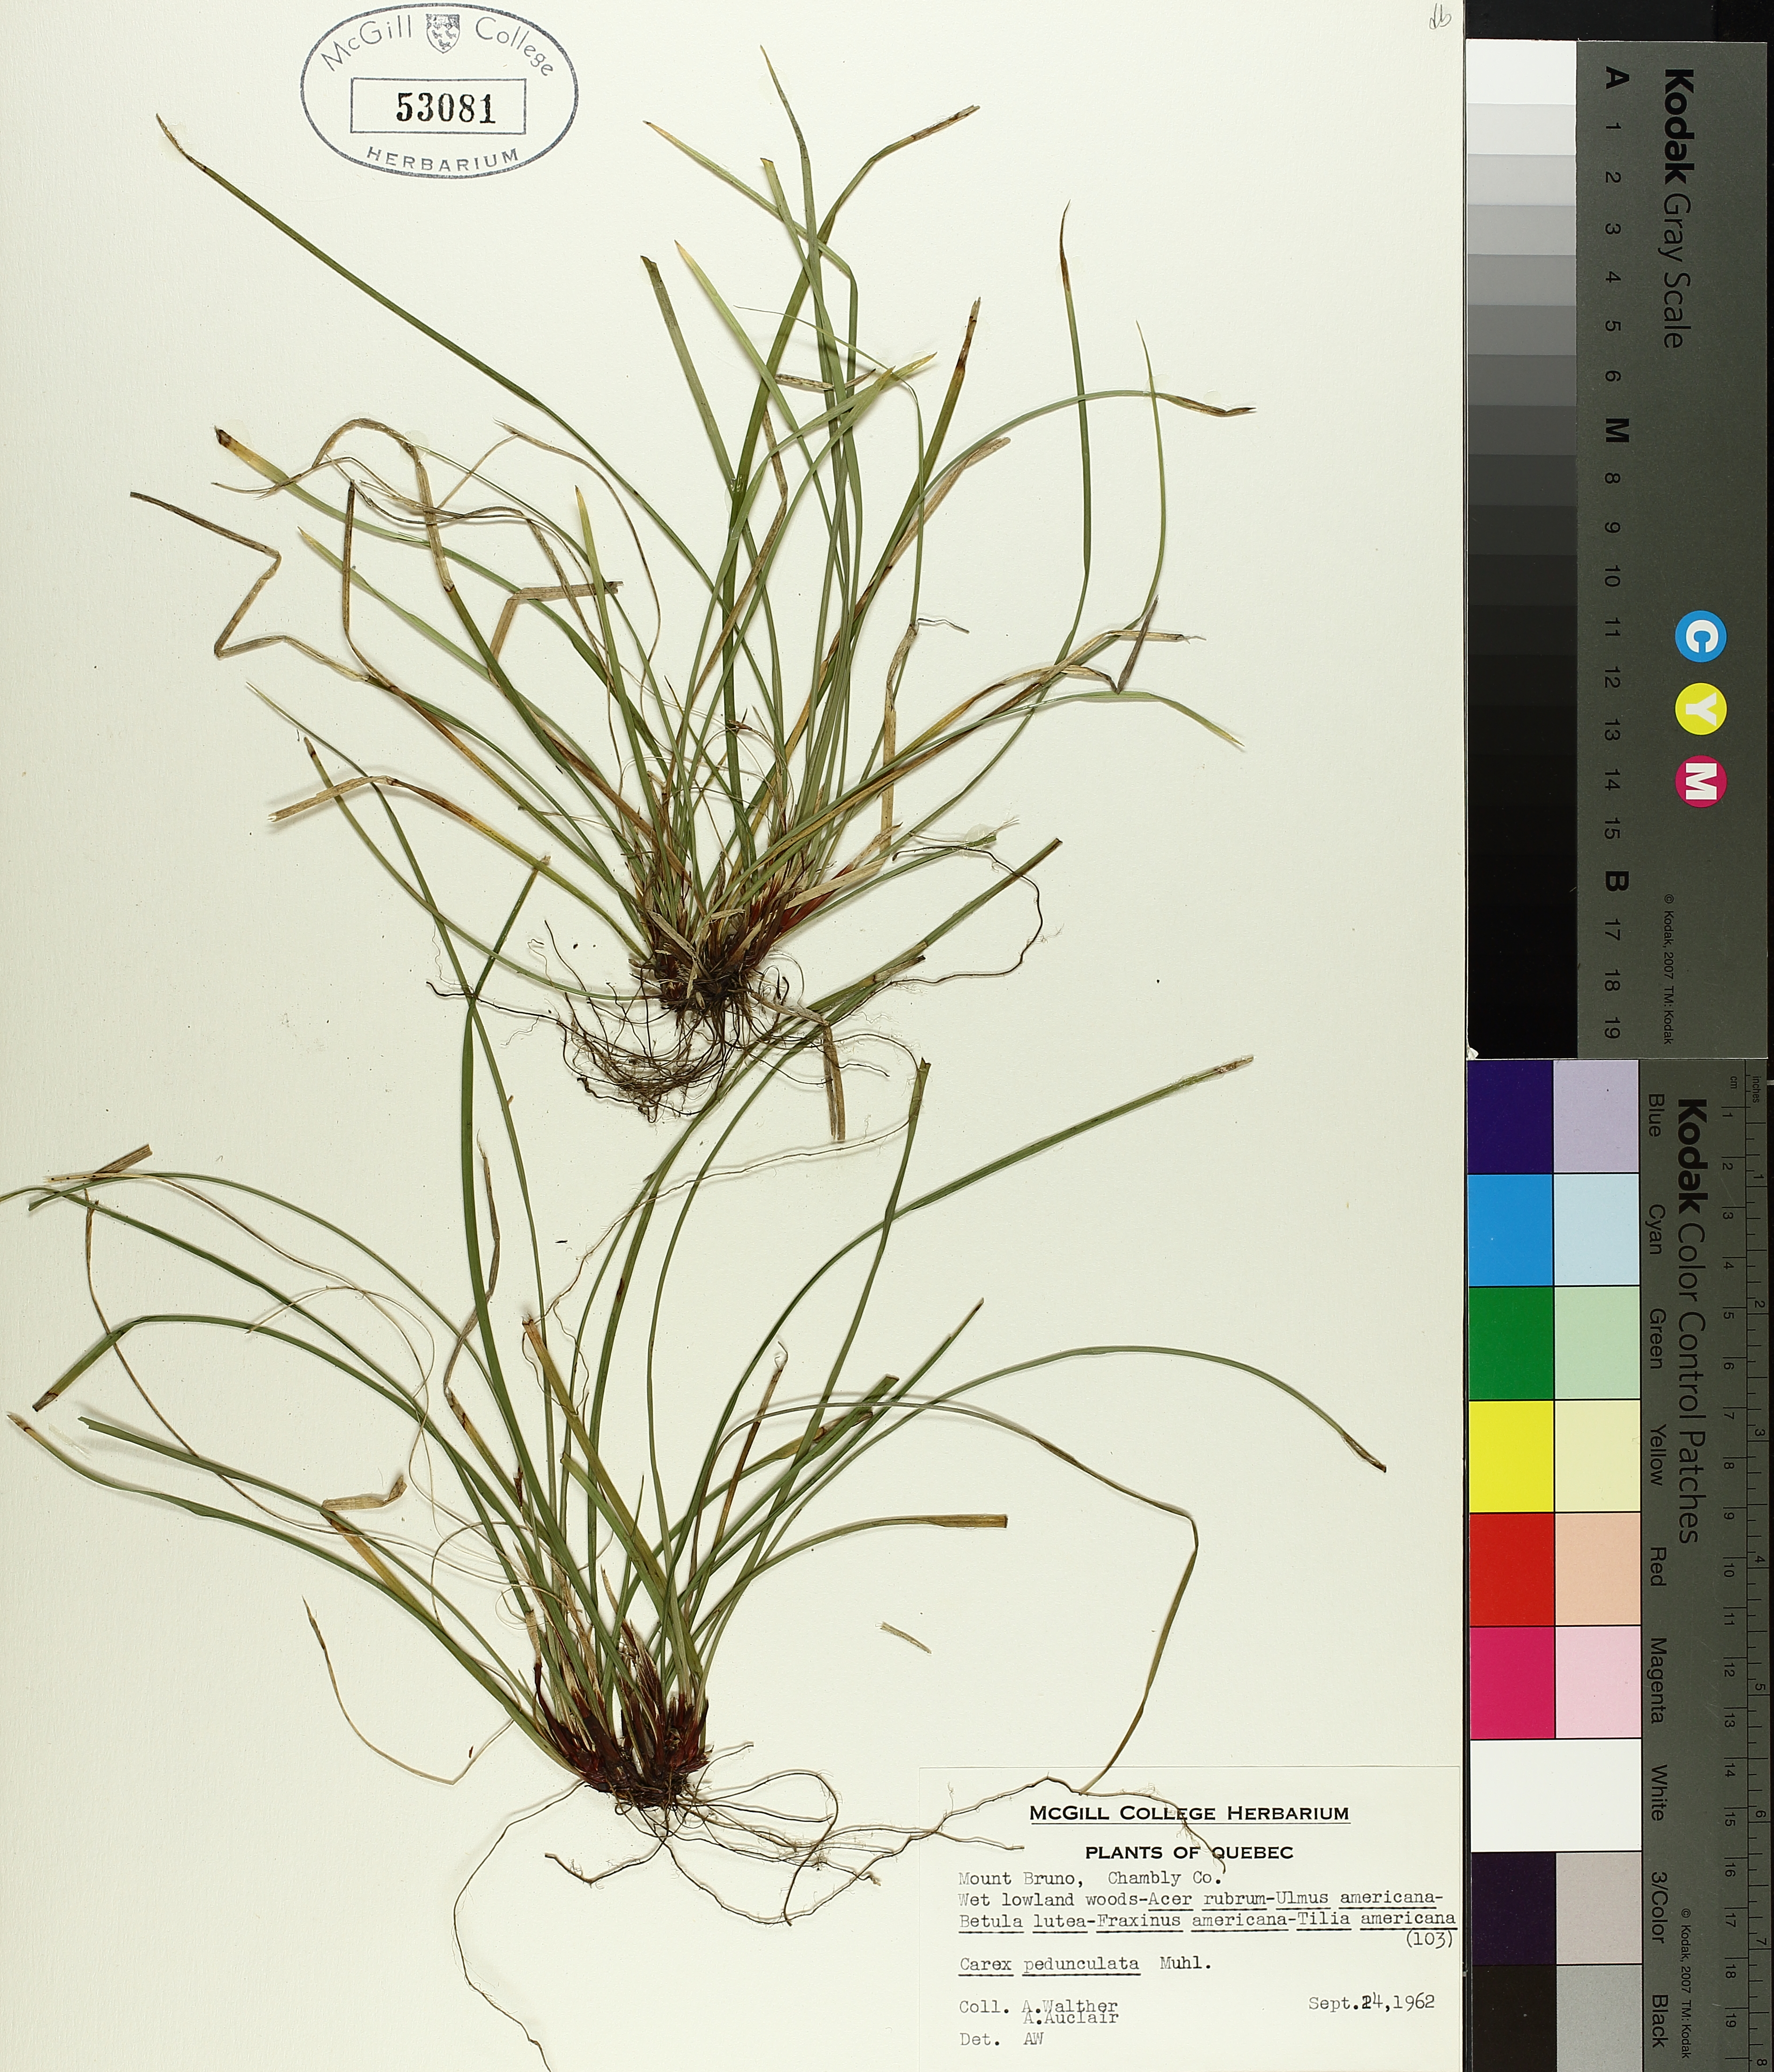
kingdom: Plantae
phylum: Tracheophyta
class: Liliopsida
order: Poales
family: Cyperaceae
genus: Carex
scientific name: Carex pedunculata
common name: Pedunculate sedge
